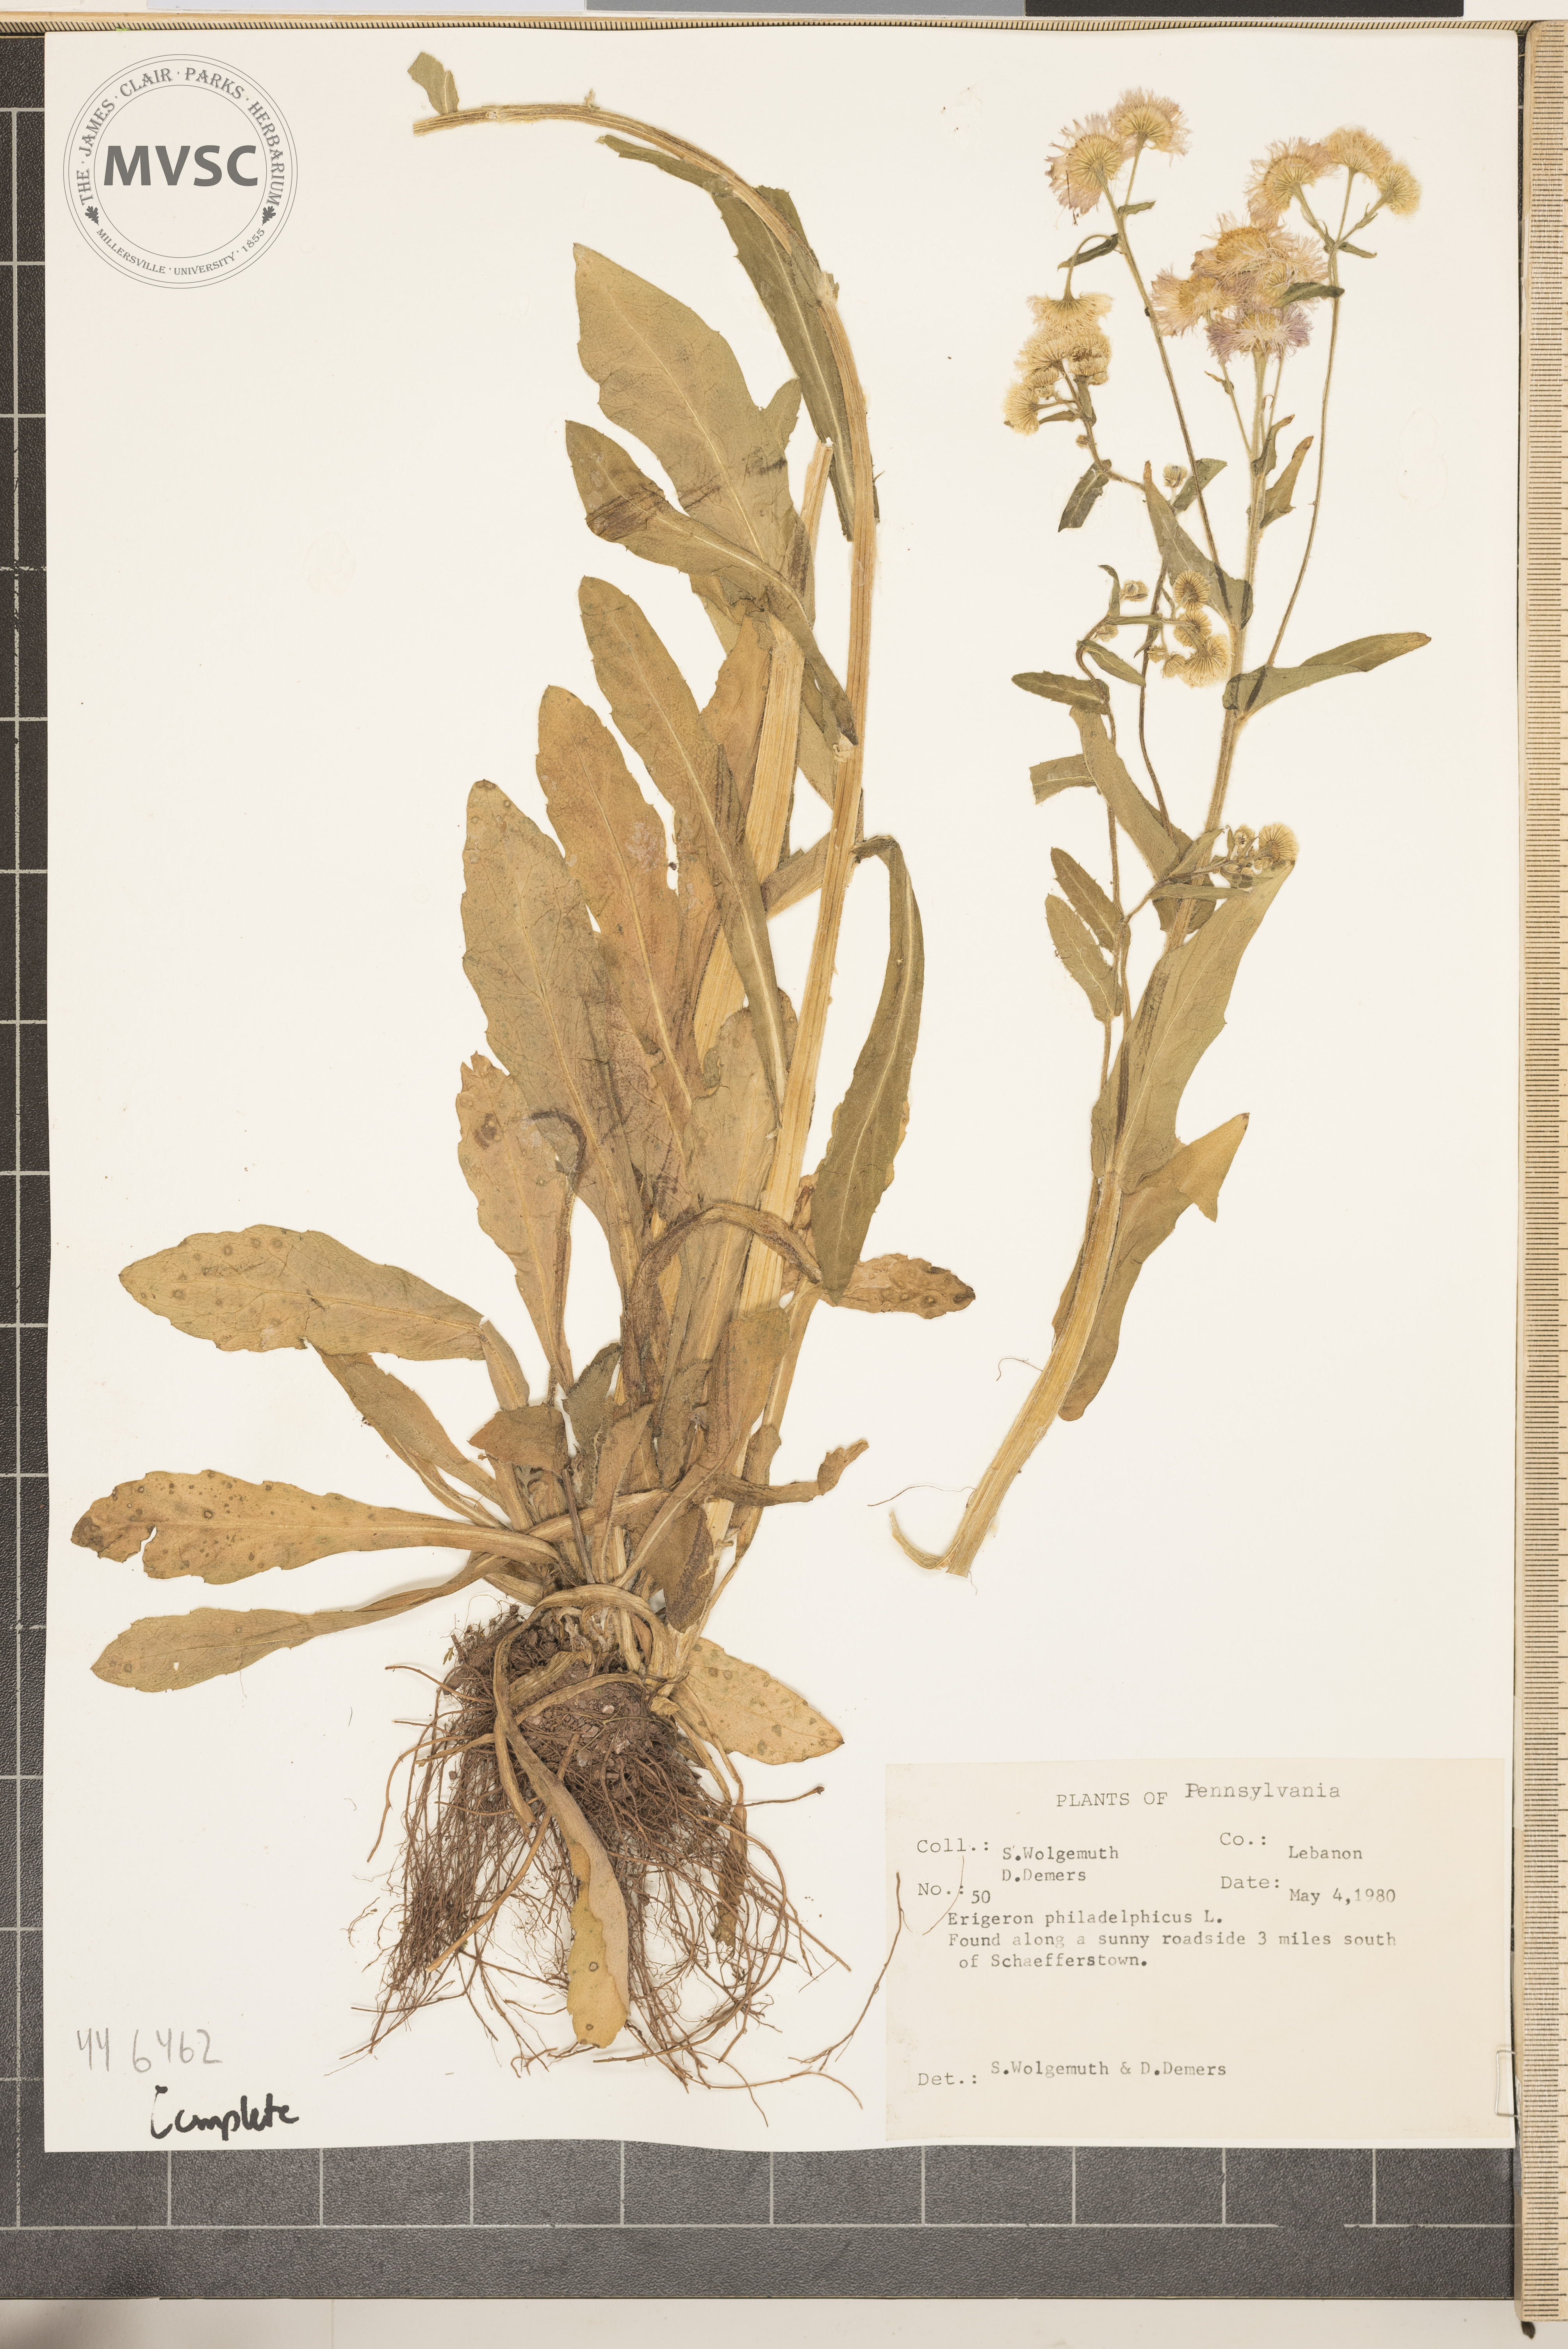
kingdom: Plantae
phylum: Tracheophyta
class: Magnoliopsida
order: Asterales
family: Asteraceae
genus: Erigeron
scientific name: Erigeron philadelphicus
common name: Robin's-plantain
